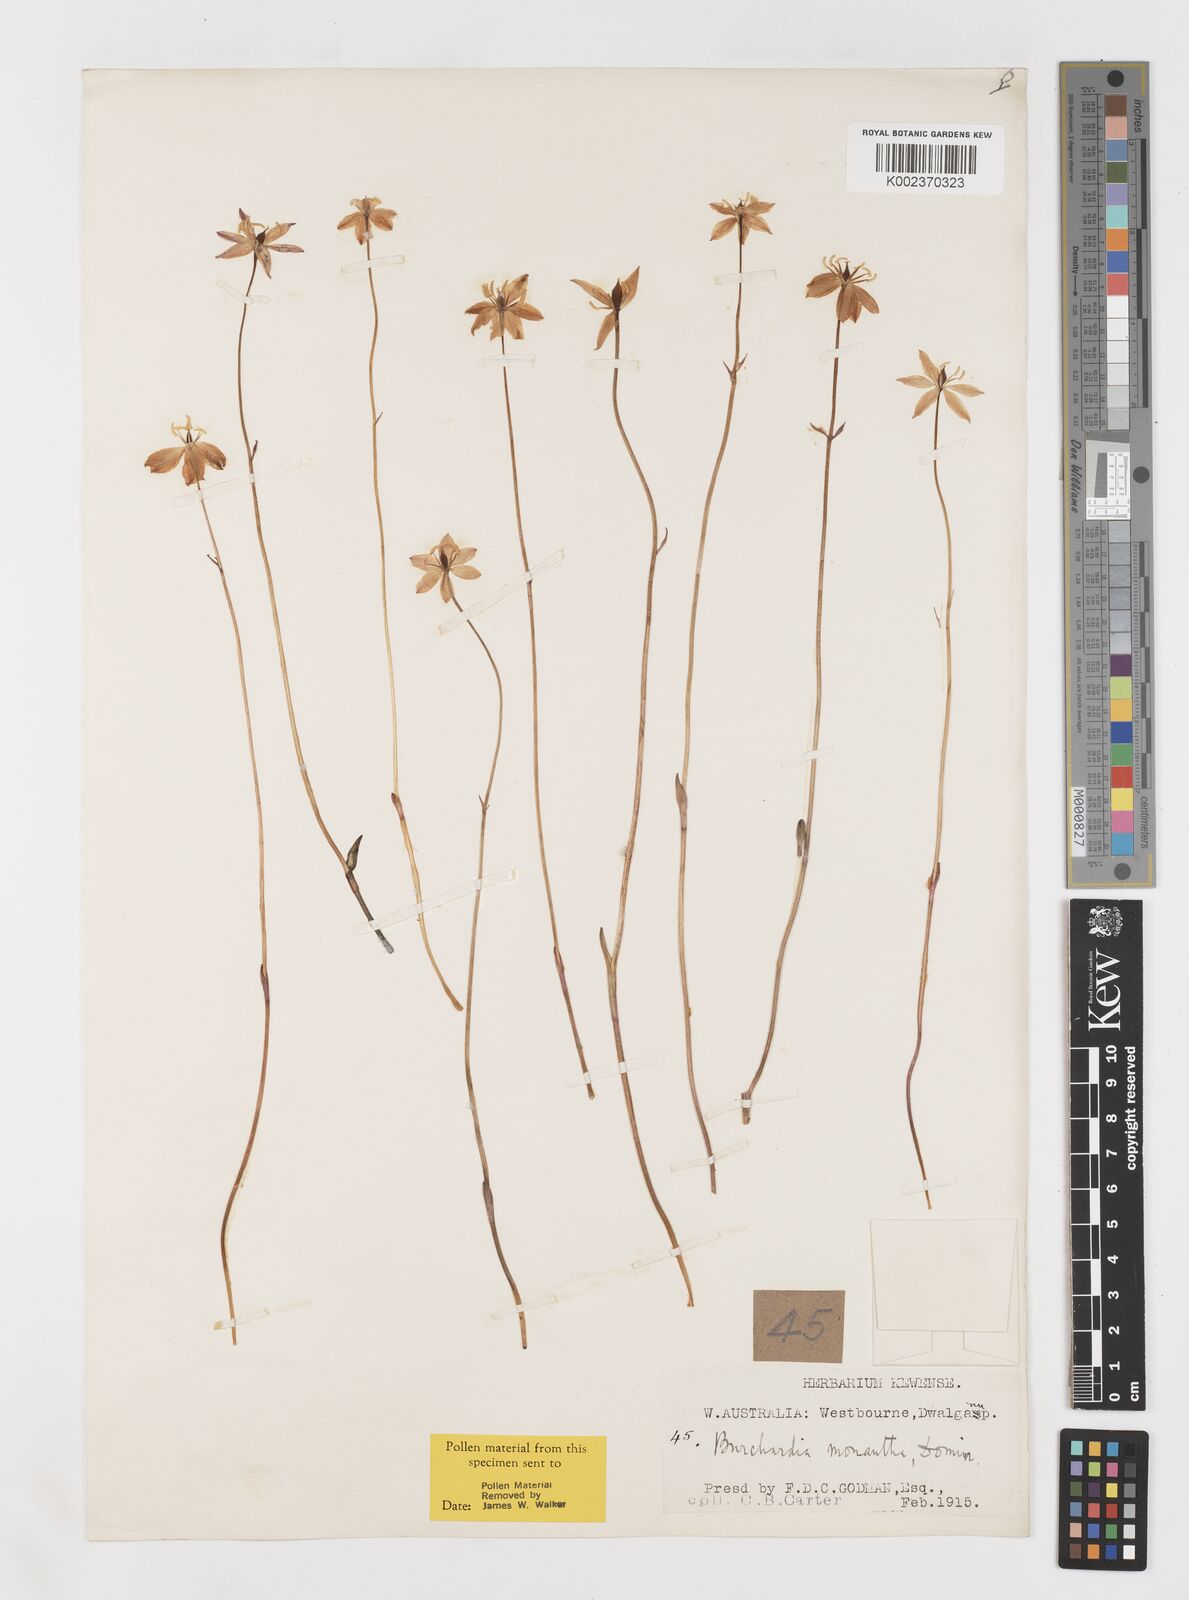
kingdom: Plantae
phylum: Tracheophyta
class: Liliopsida
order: Liliales
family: Colchicaceae
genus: Burchardia
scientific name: Burchardia monantha
